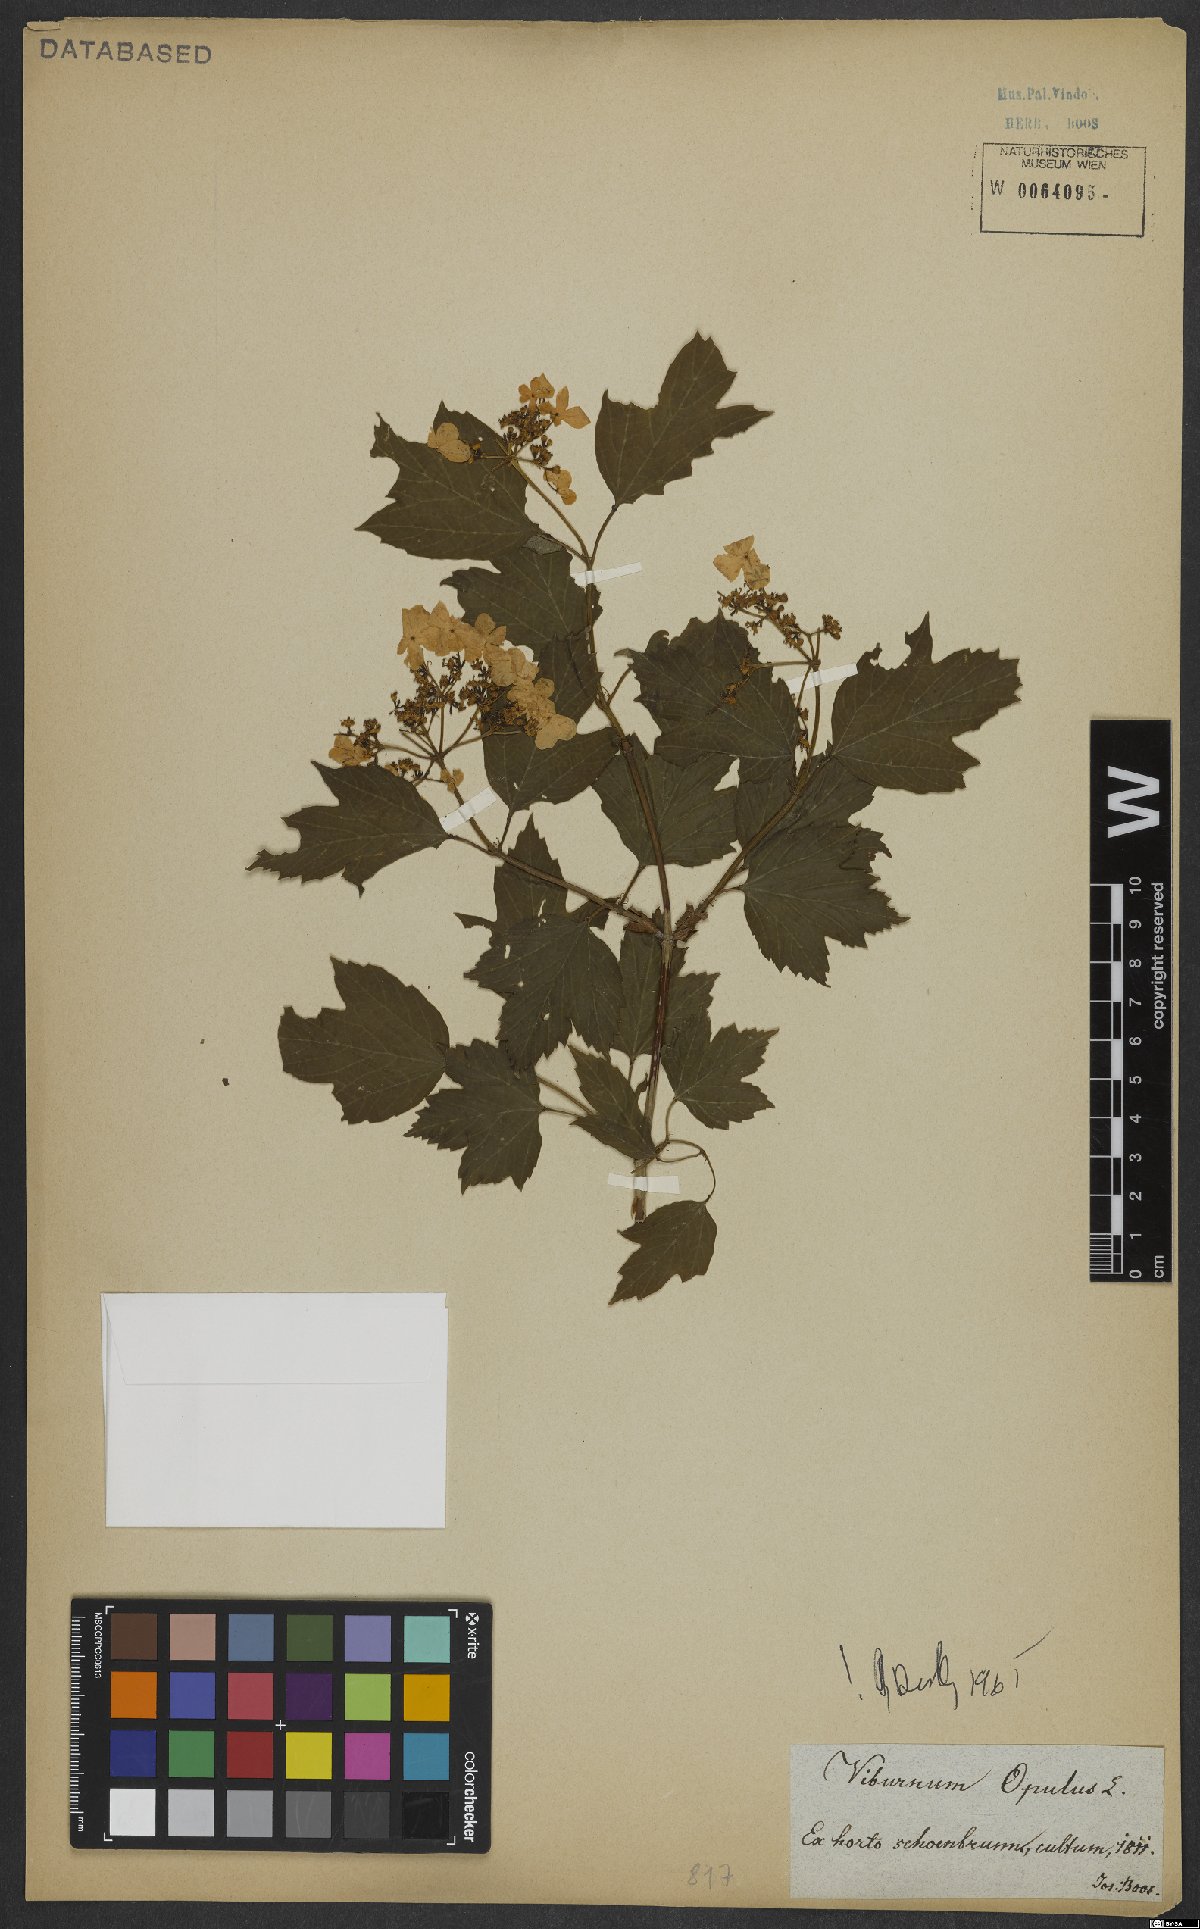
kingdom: Plantae
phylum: Tracheophyta
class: Magnoliopsida
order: Dipsacales
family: Viburnaceae
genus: Viburnum
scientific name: Viburnum opulus
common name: Guelder-rose
